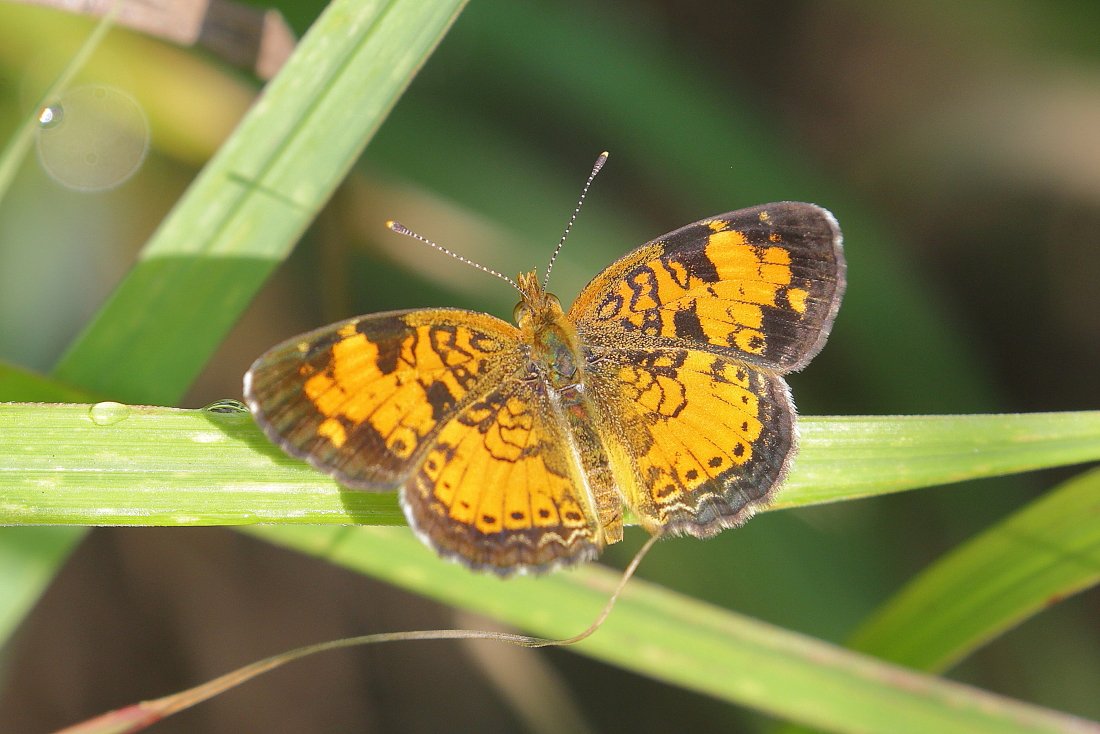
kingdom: Animalia
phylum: Arthropoda
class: Insecta
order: Lepidoptera
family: Nymphalidae
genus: Phyciodes
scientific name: Phyciodes tharos
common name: Northern Crescent
